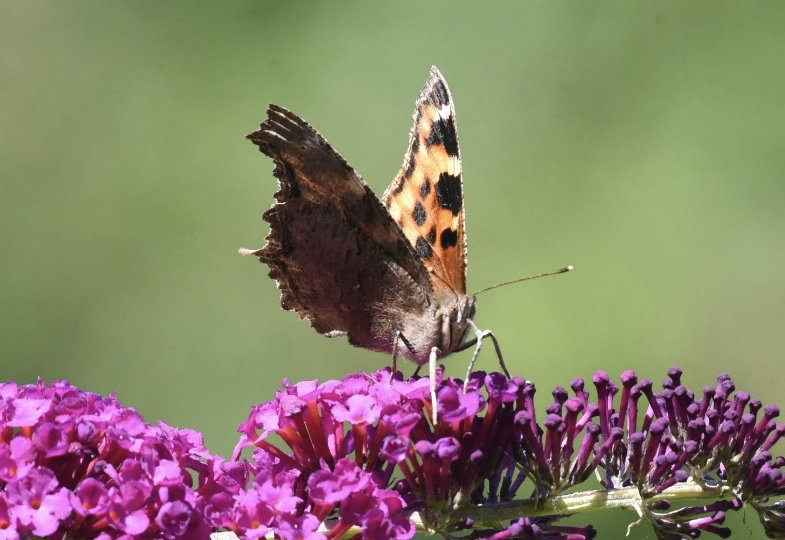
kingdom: Animalia
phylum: Arthropoda
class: Insecta
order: Lepidoptera
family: Nymphalidae
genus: Polygonia
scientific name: Polygonia vaualbum
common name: Compton Tortoiseshell
